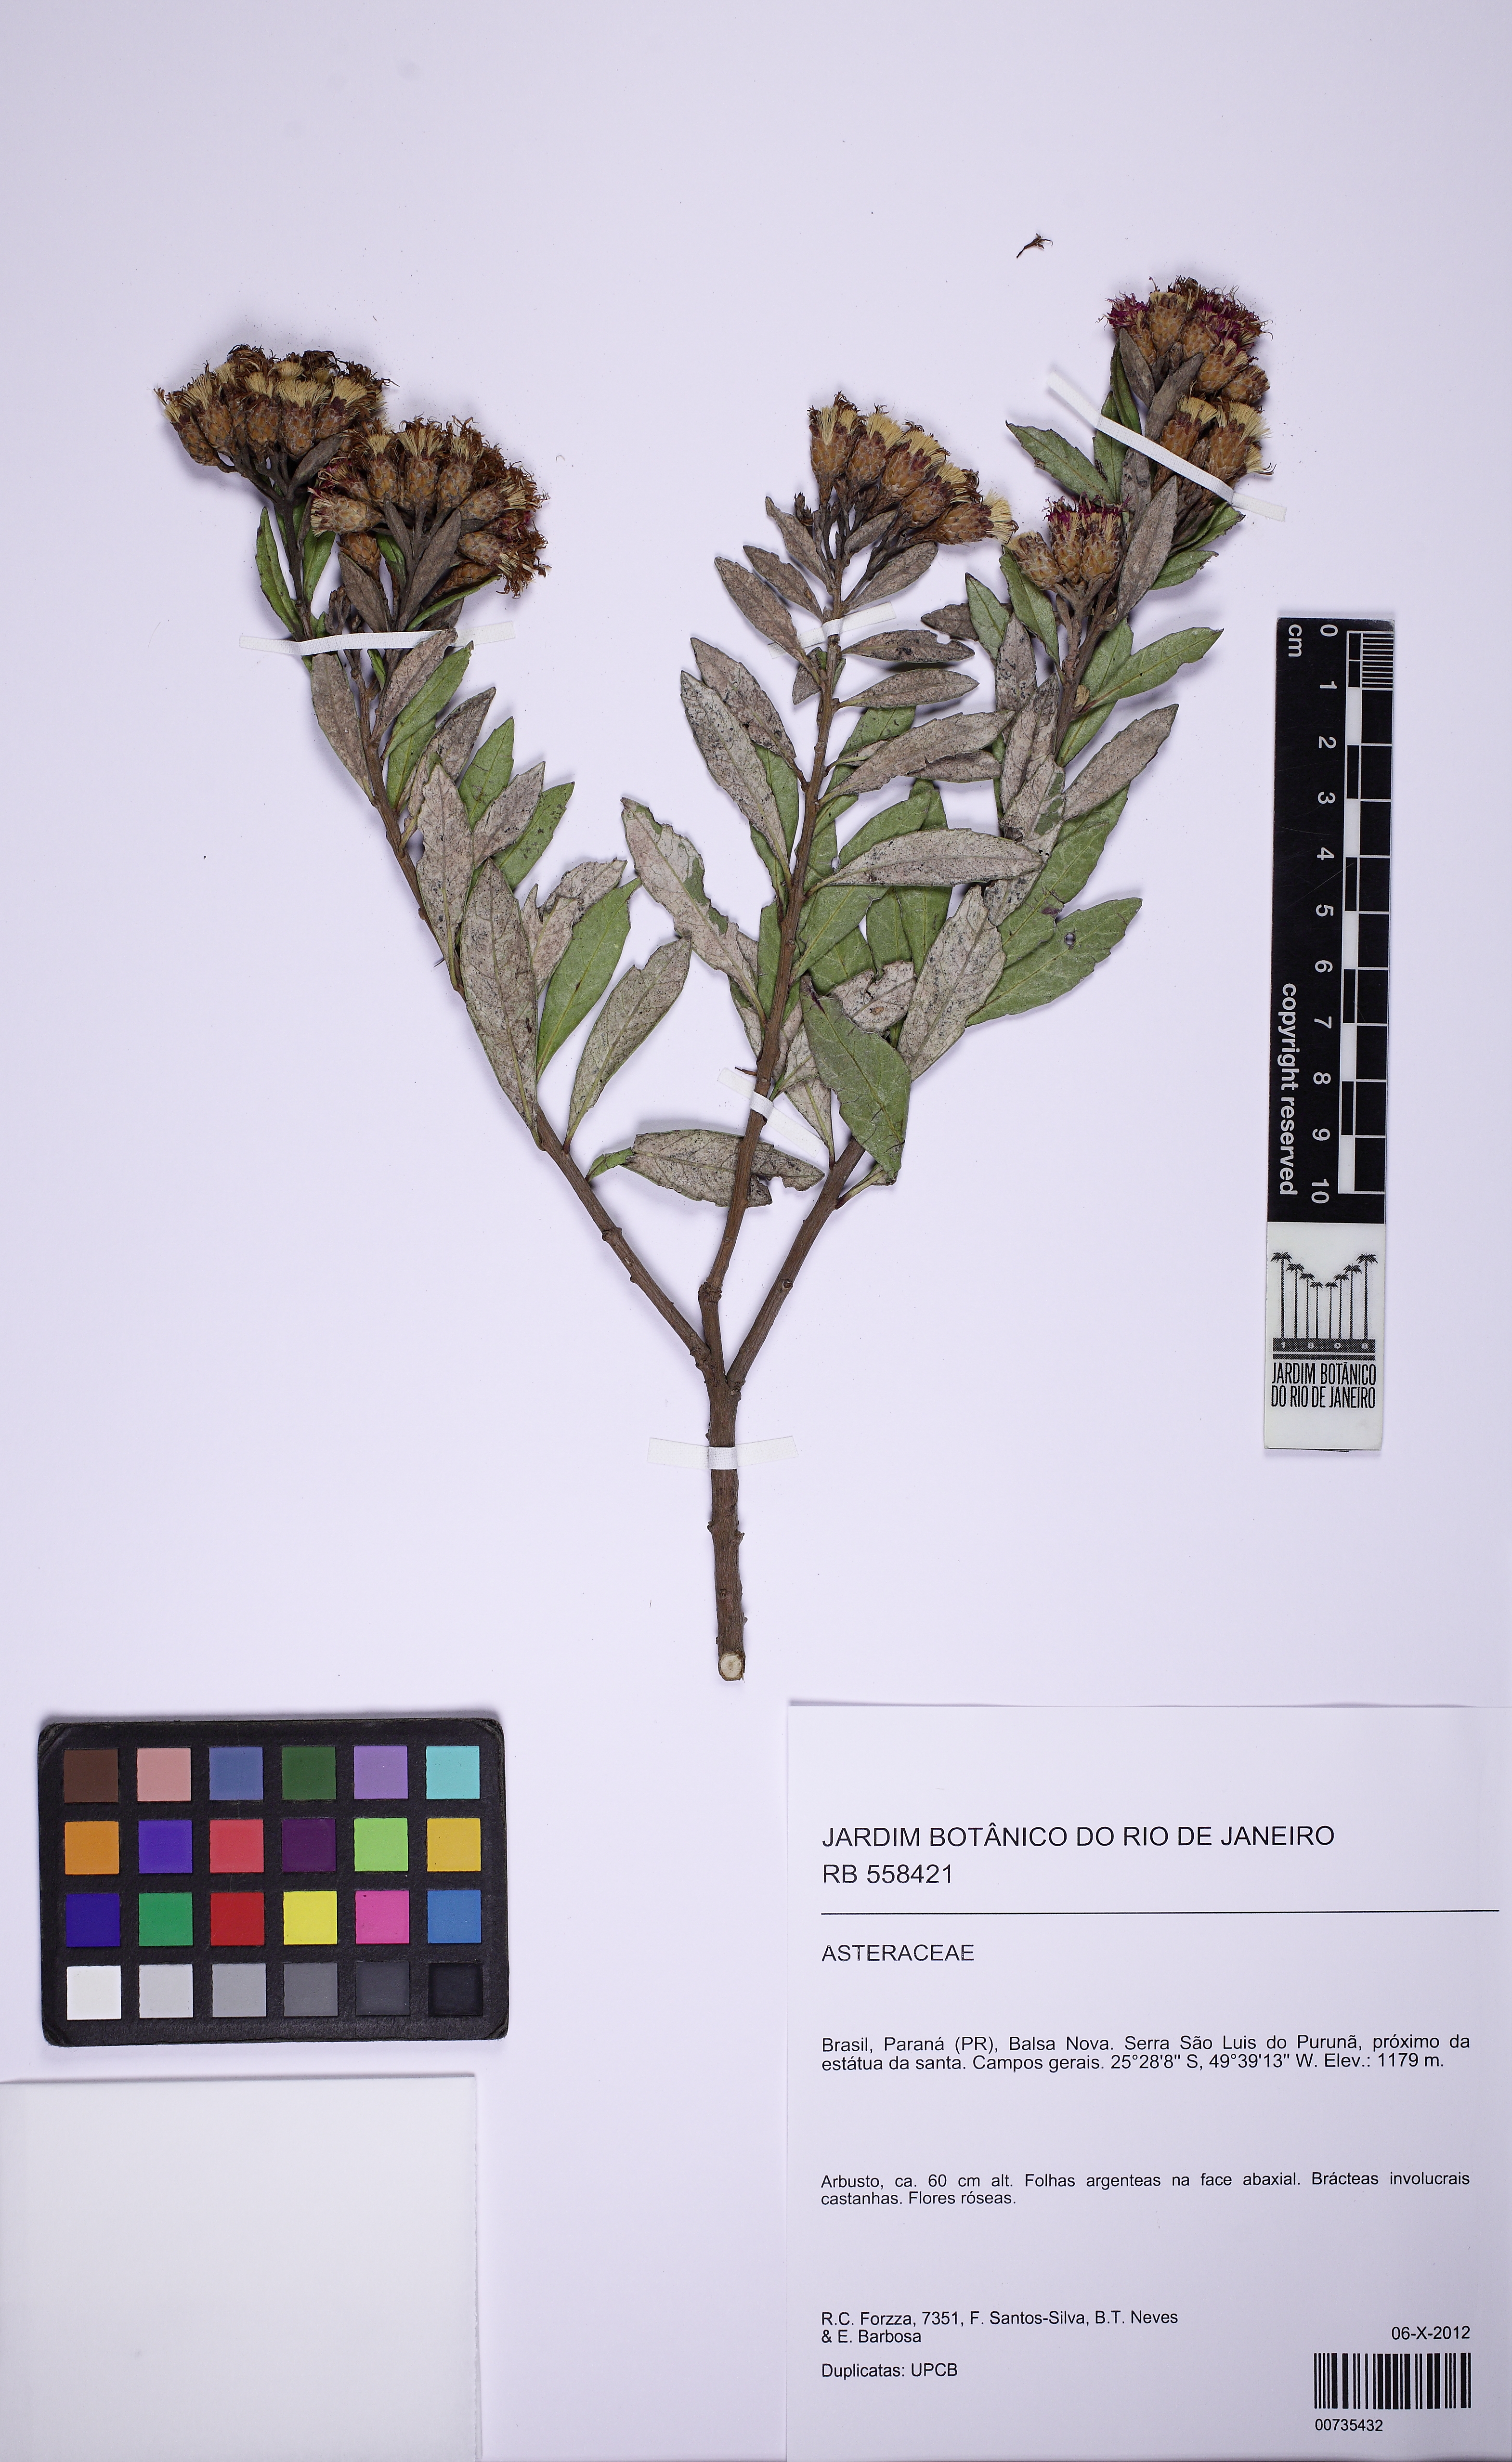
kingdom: Plantae
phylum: Tracheophyta
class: Magnoliopsida
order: Asterales
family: Asteraceae
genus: Vernonanthura
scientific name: Vernonanthura
